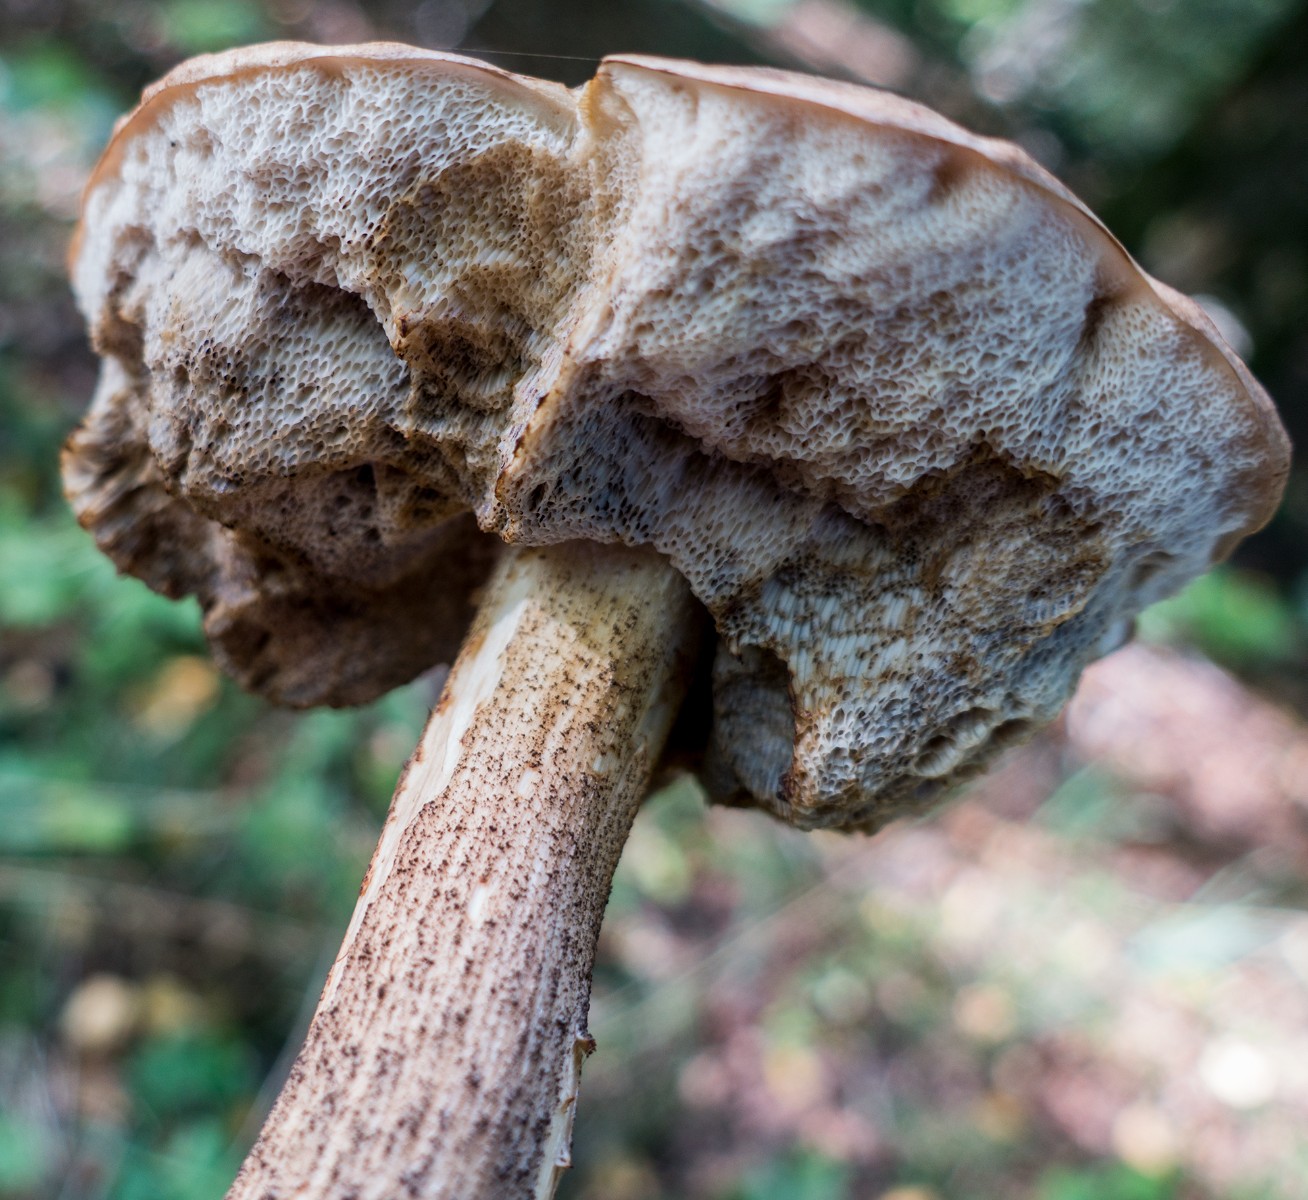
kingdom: Fungi
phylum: Basidiomycota
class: Agaricomycetes
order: Boletales
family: Boletaceae
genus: Leccinum
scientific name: Leccinum
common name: skælrørhat
